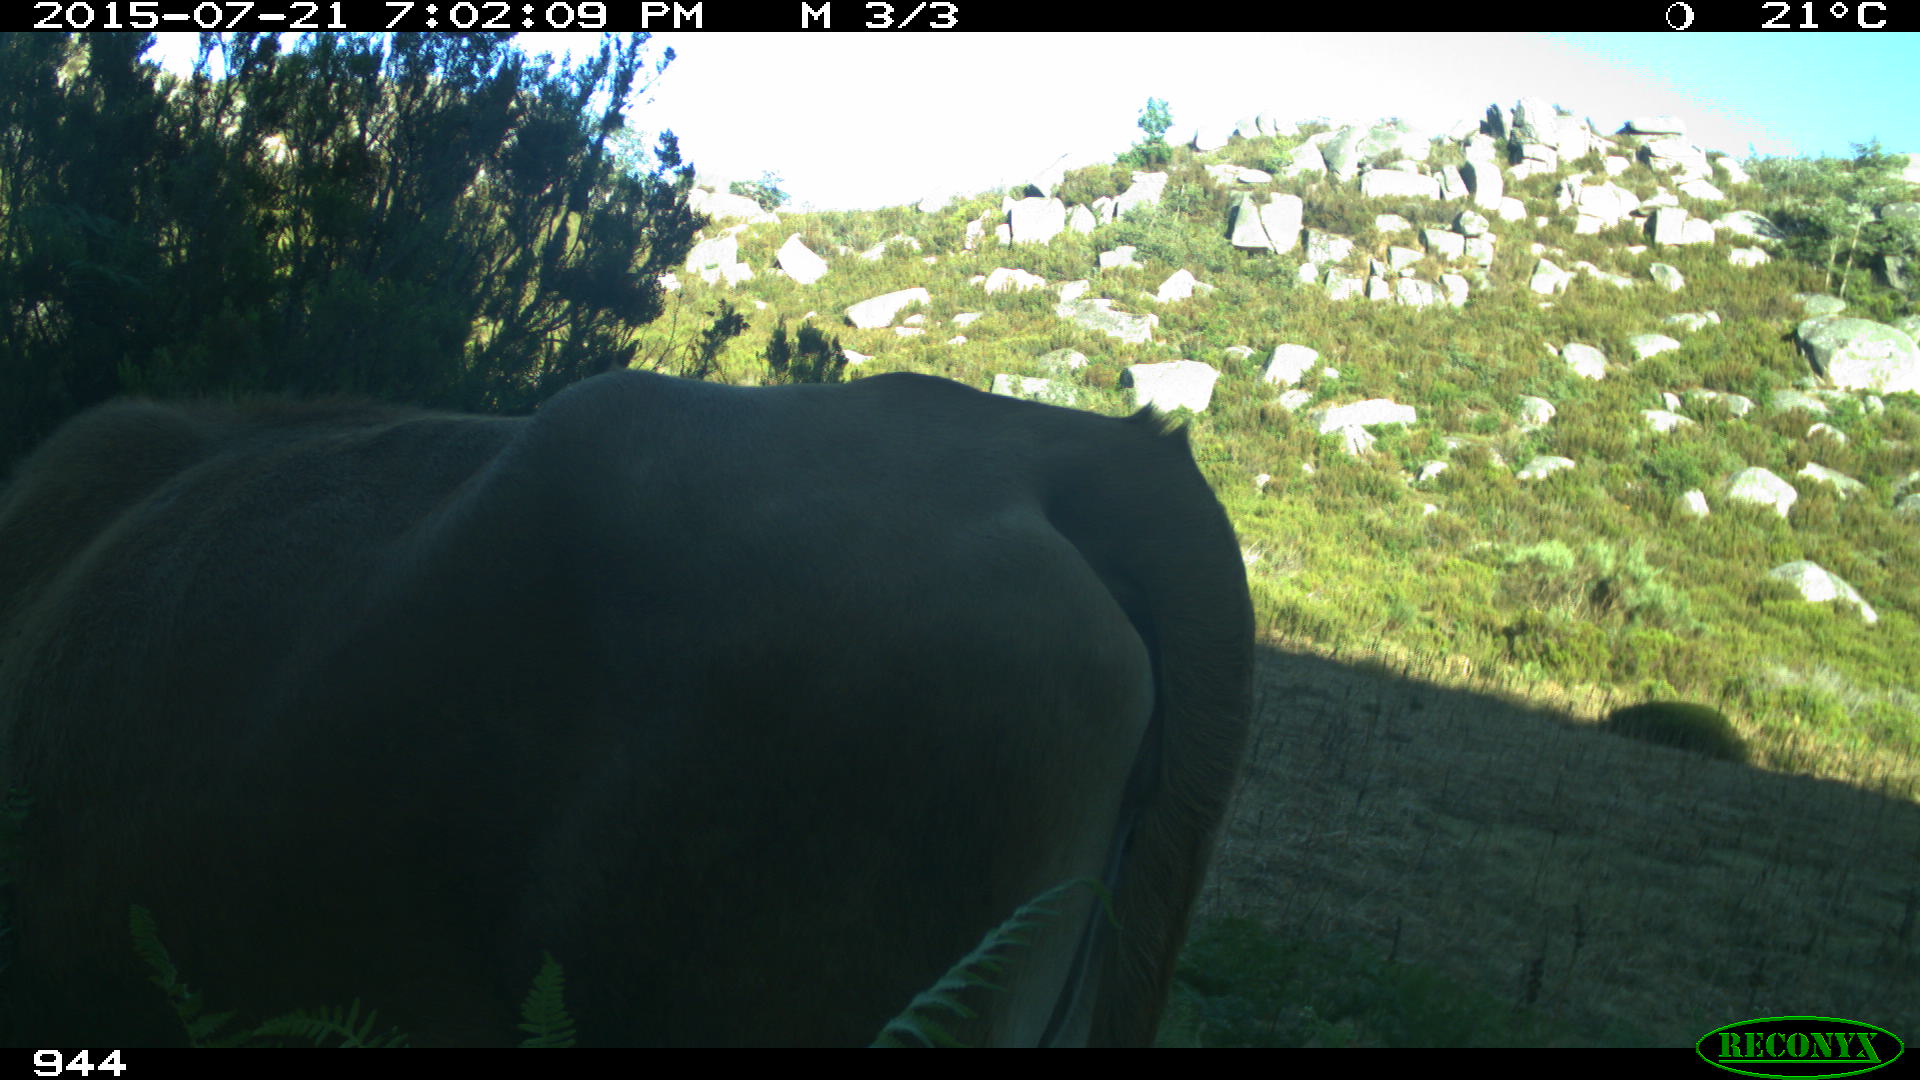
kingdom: Animalia
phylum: Chordata
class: Mammalia
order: Artiodactyla
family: Bovidae
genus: Bos
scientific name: Bos taurus
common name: Domesticated cattle
